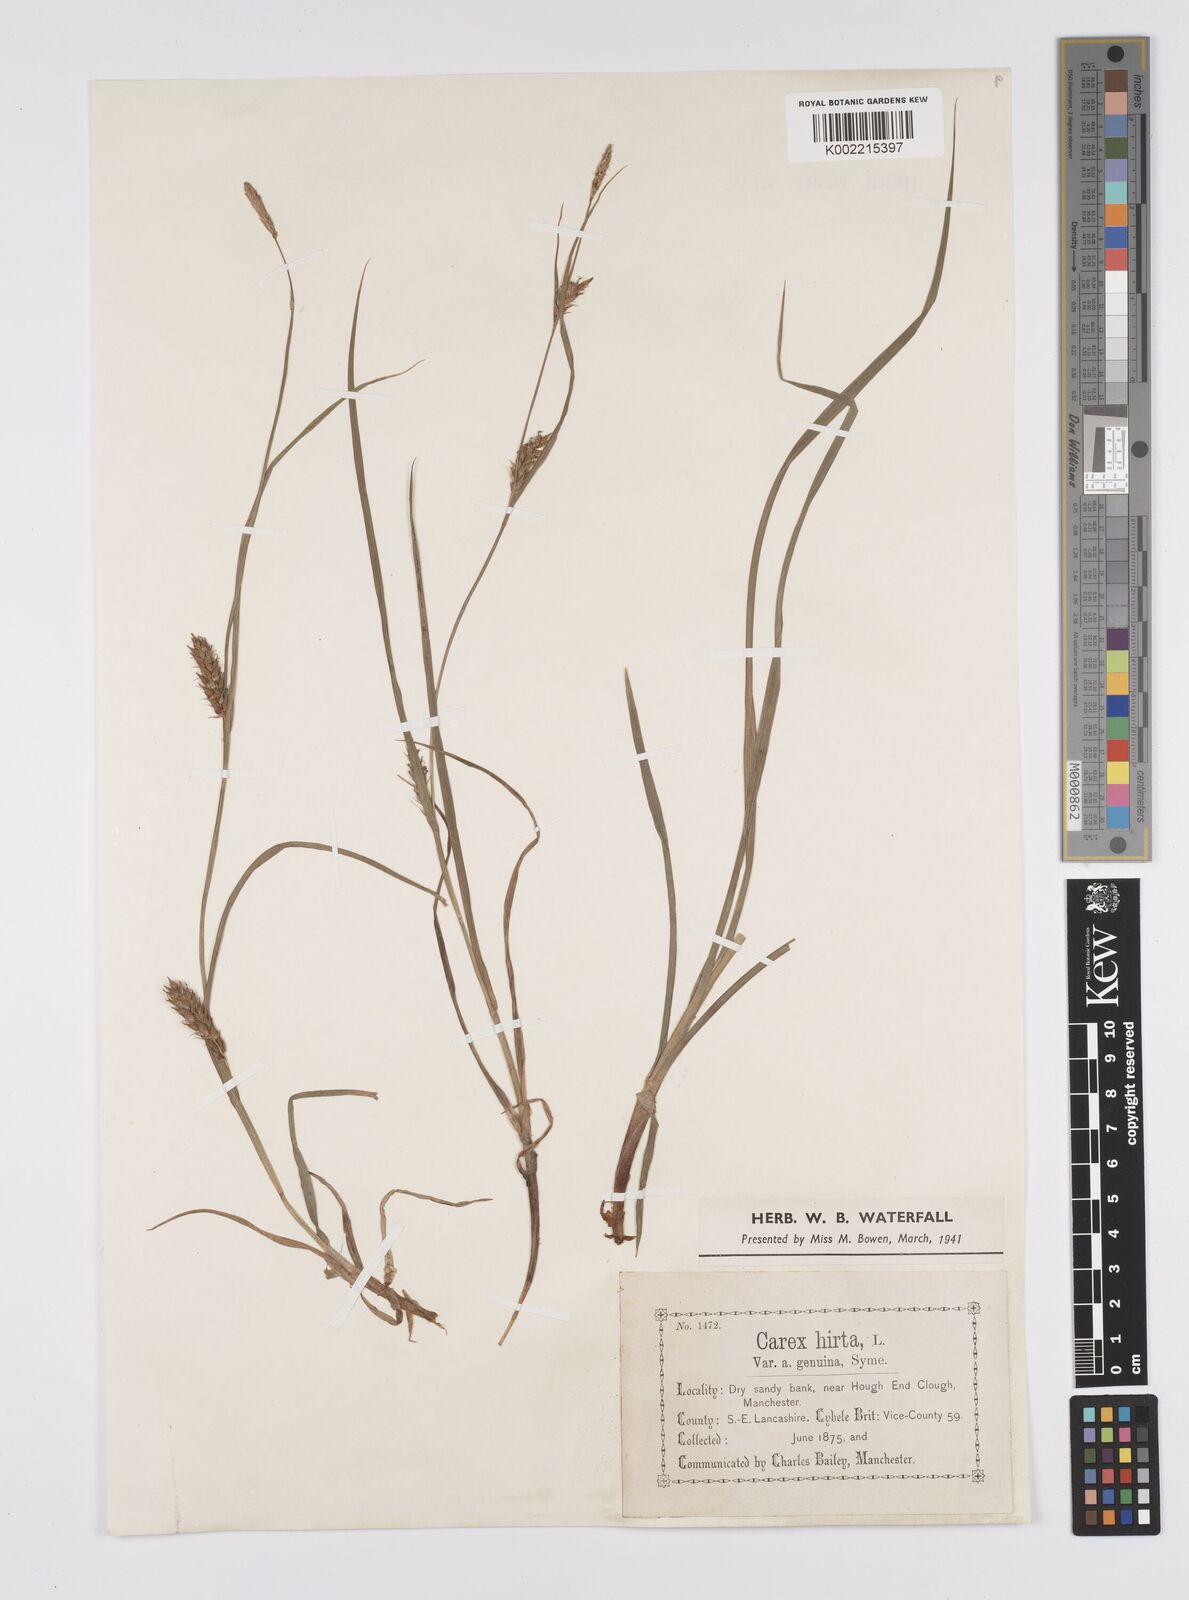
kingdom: Plantae
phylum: Tracheophyta
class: Liliopsida
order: Poales
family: Cyperaceae
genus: Carex
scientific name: Carex hirta
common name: Hairy sedge
